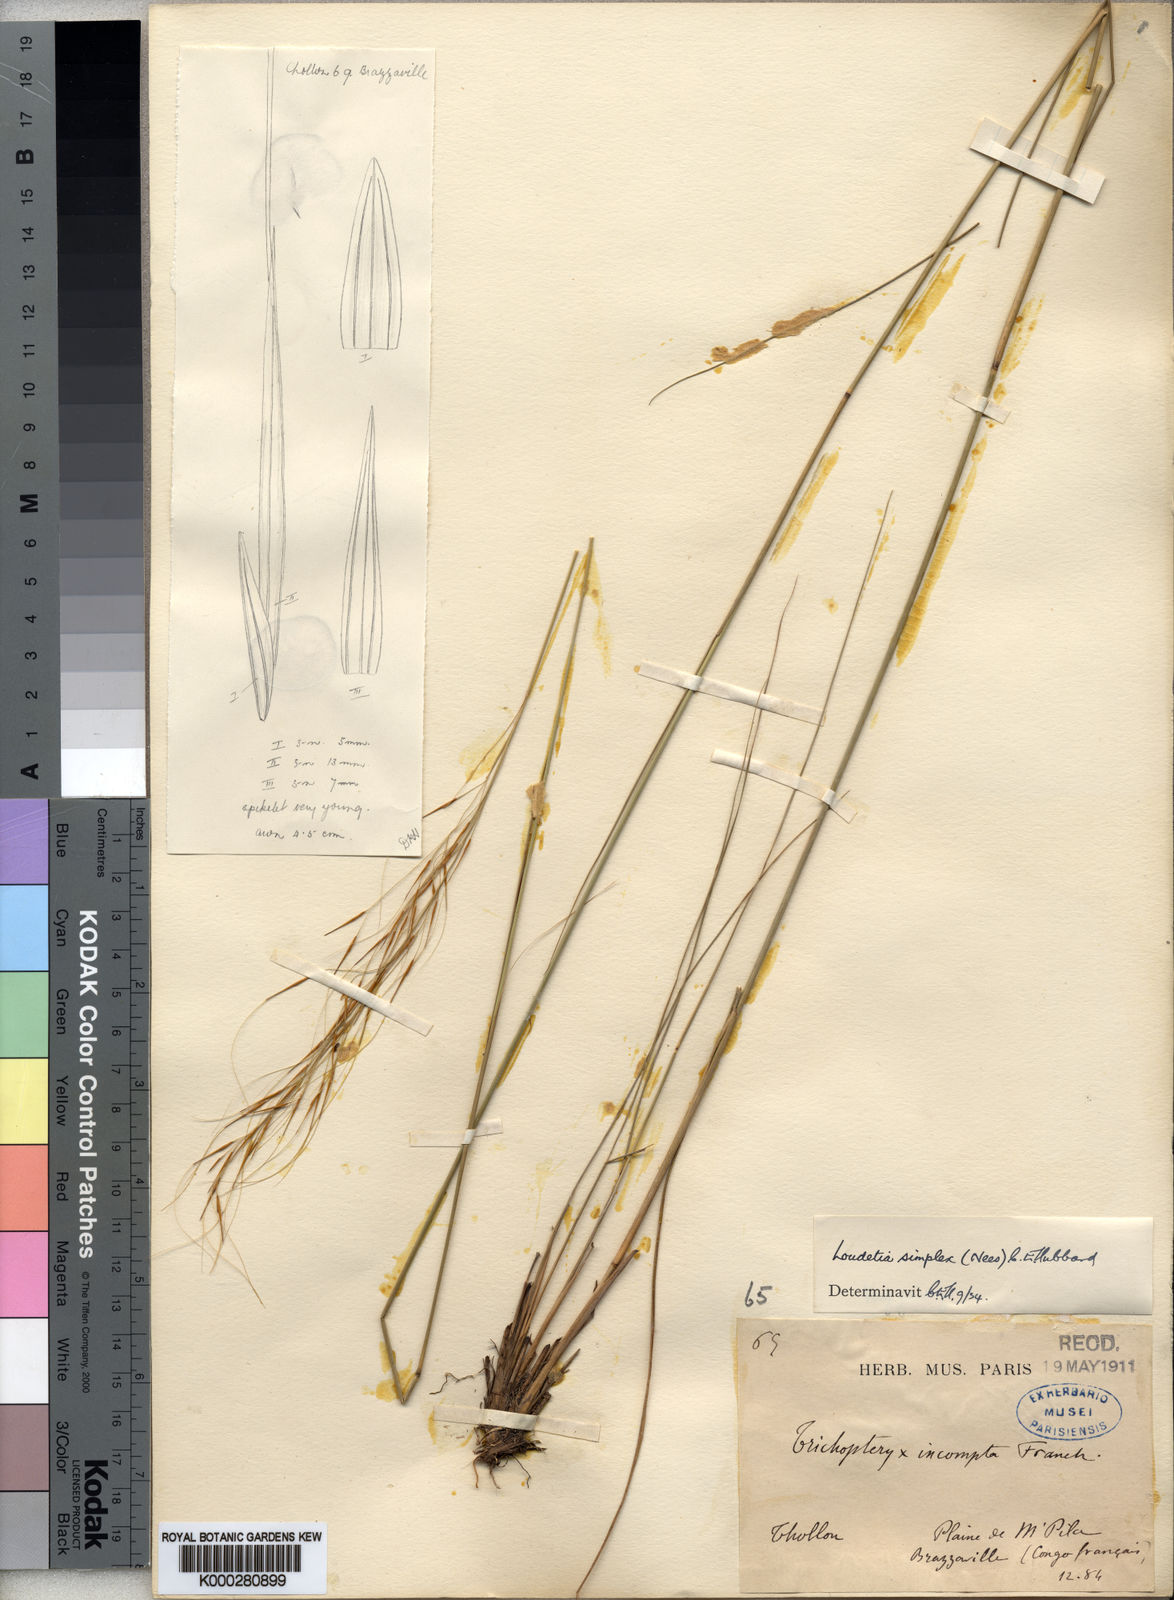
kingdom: Plantae
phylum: Tracheophyta
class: Liliopsida
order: Poales
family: Poaceae
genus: Loudetia
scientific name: Loudetia simplex
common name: Common russet grass
